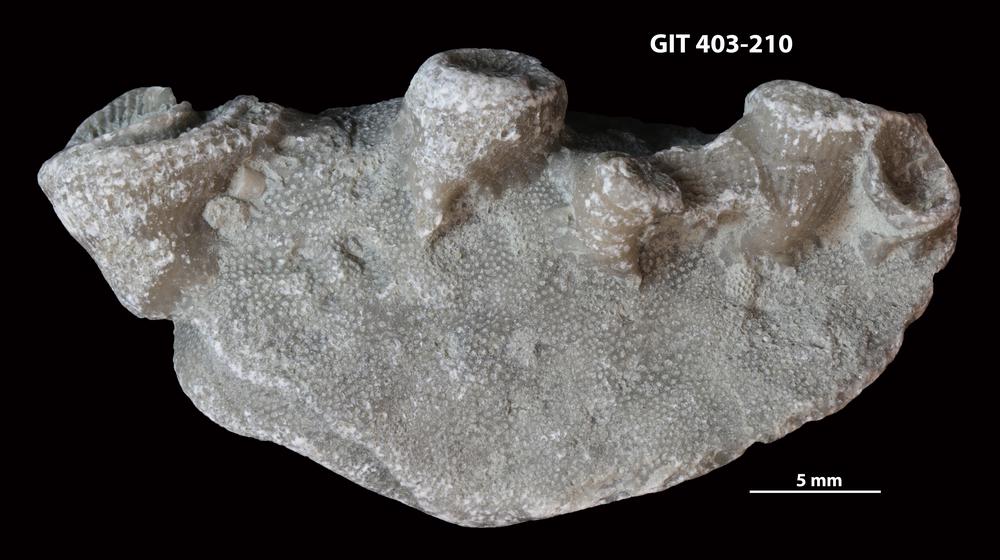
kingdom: Animalia
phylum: Bryozoa
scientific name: Bryozoa
